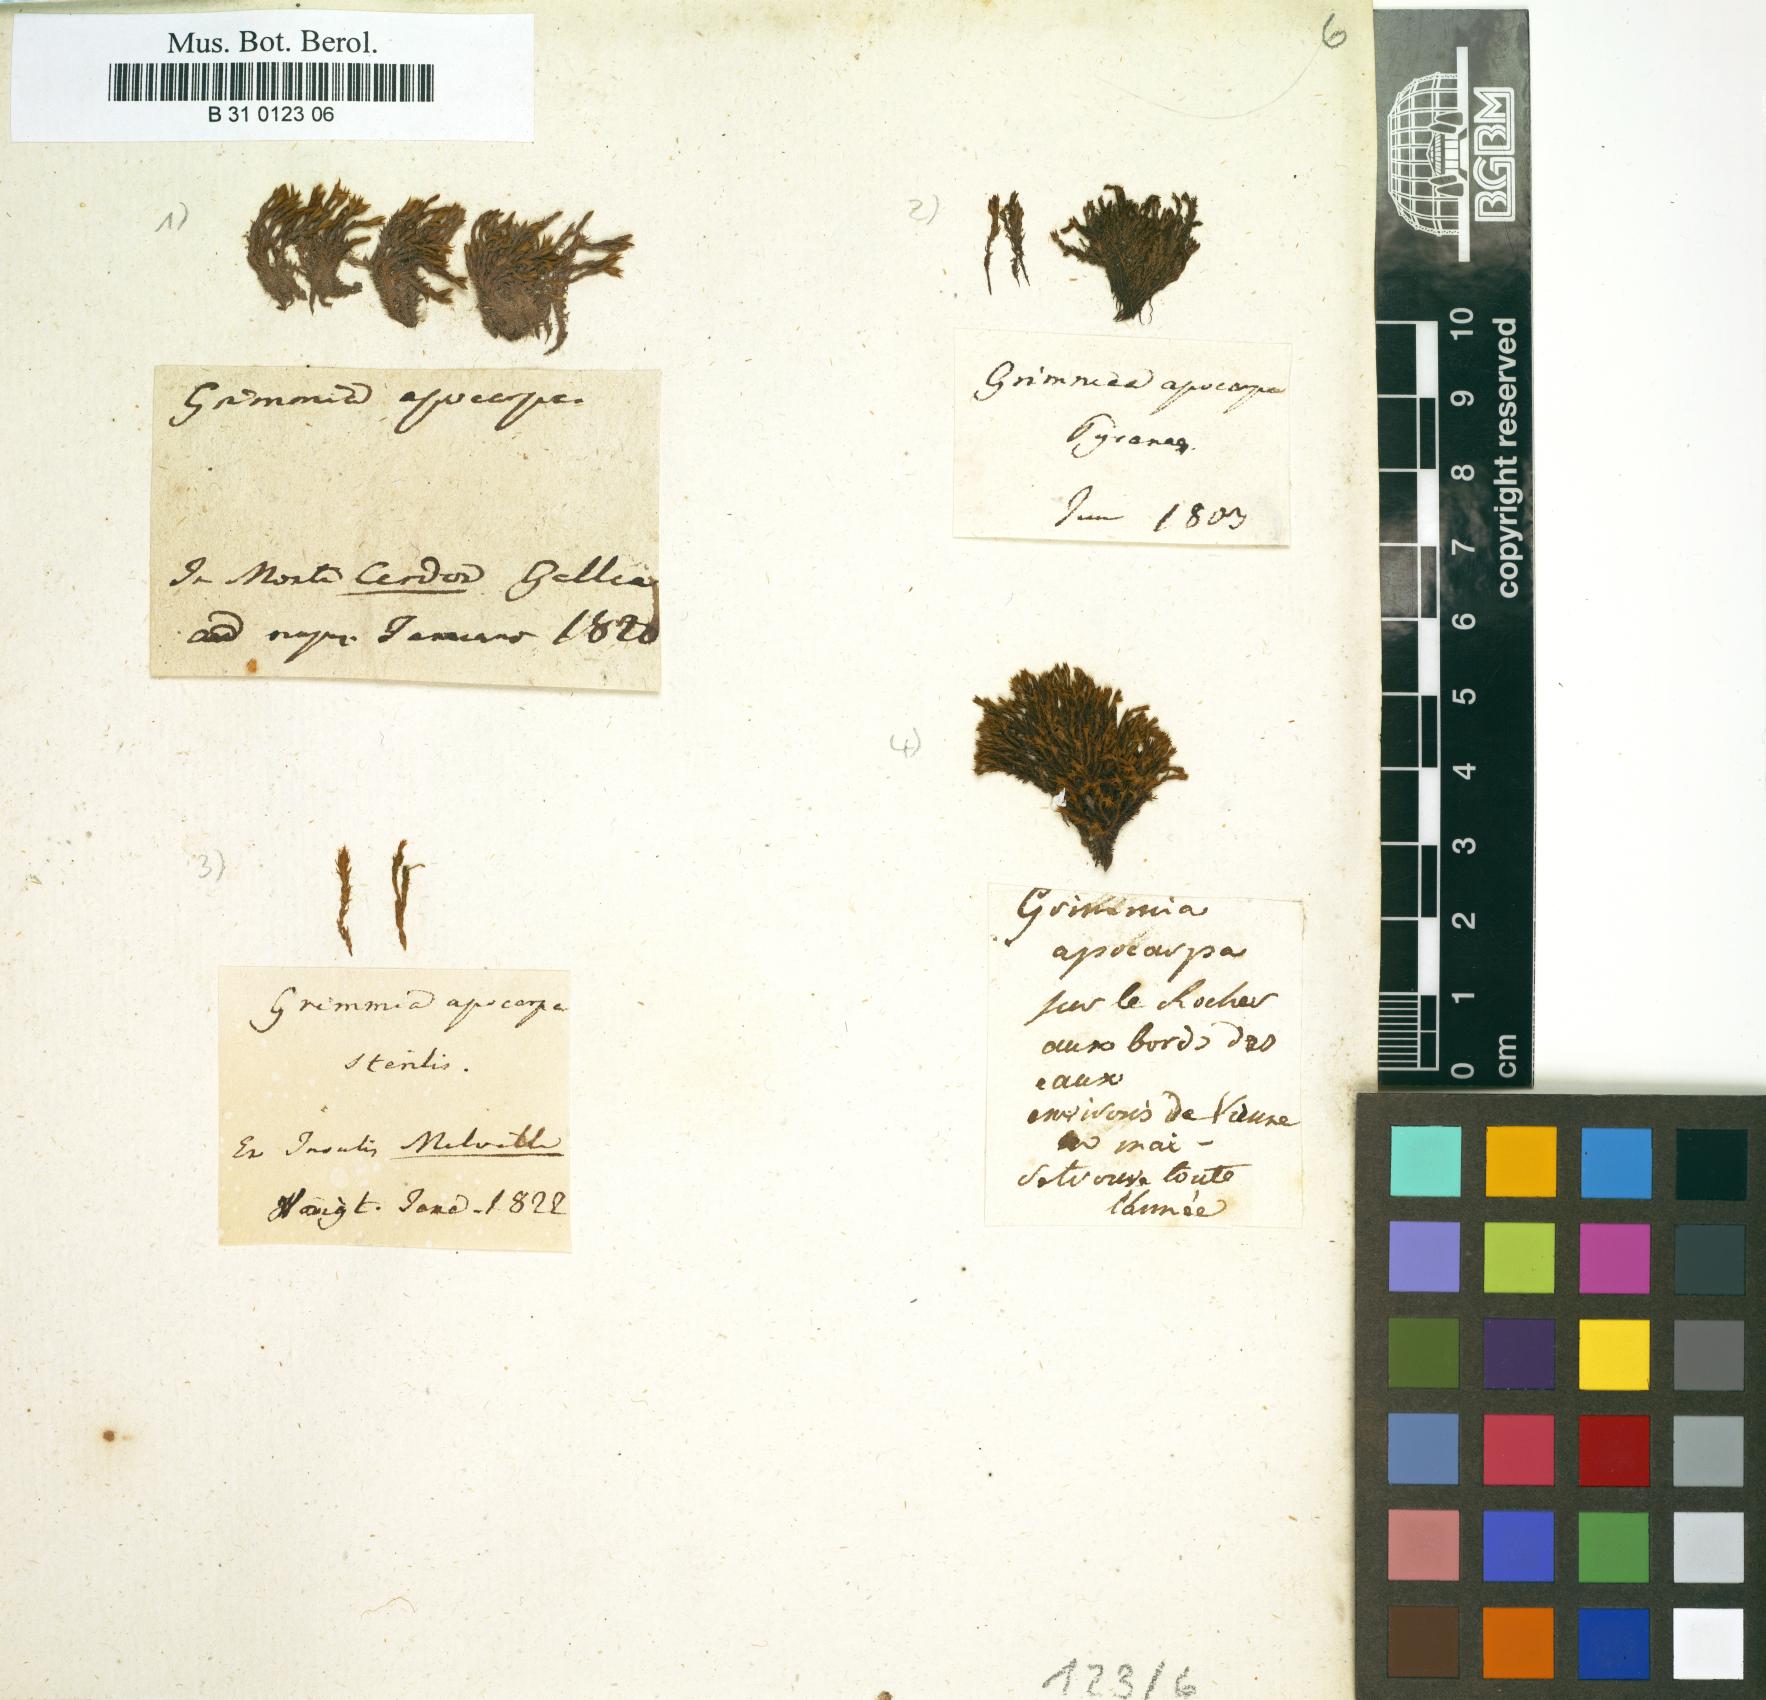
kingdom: Plantae
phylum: Bryophyta
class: Bryopsida
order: Grimmiales
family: Grimmiaceae
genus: Schistidium
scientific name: Schistidium apocarpum
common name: Radiate bloom moss
